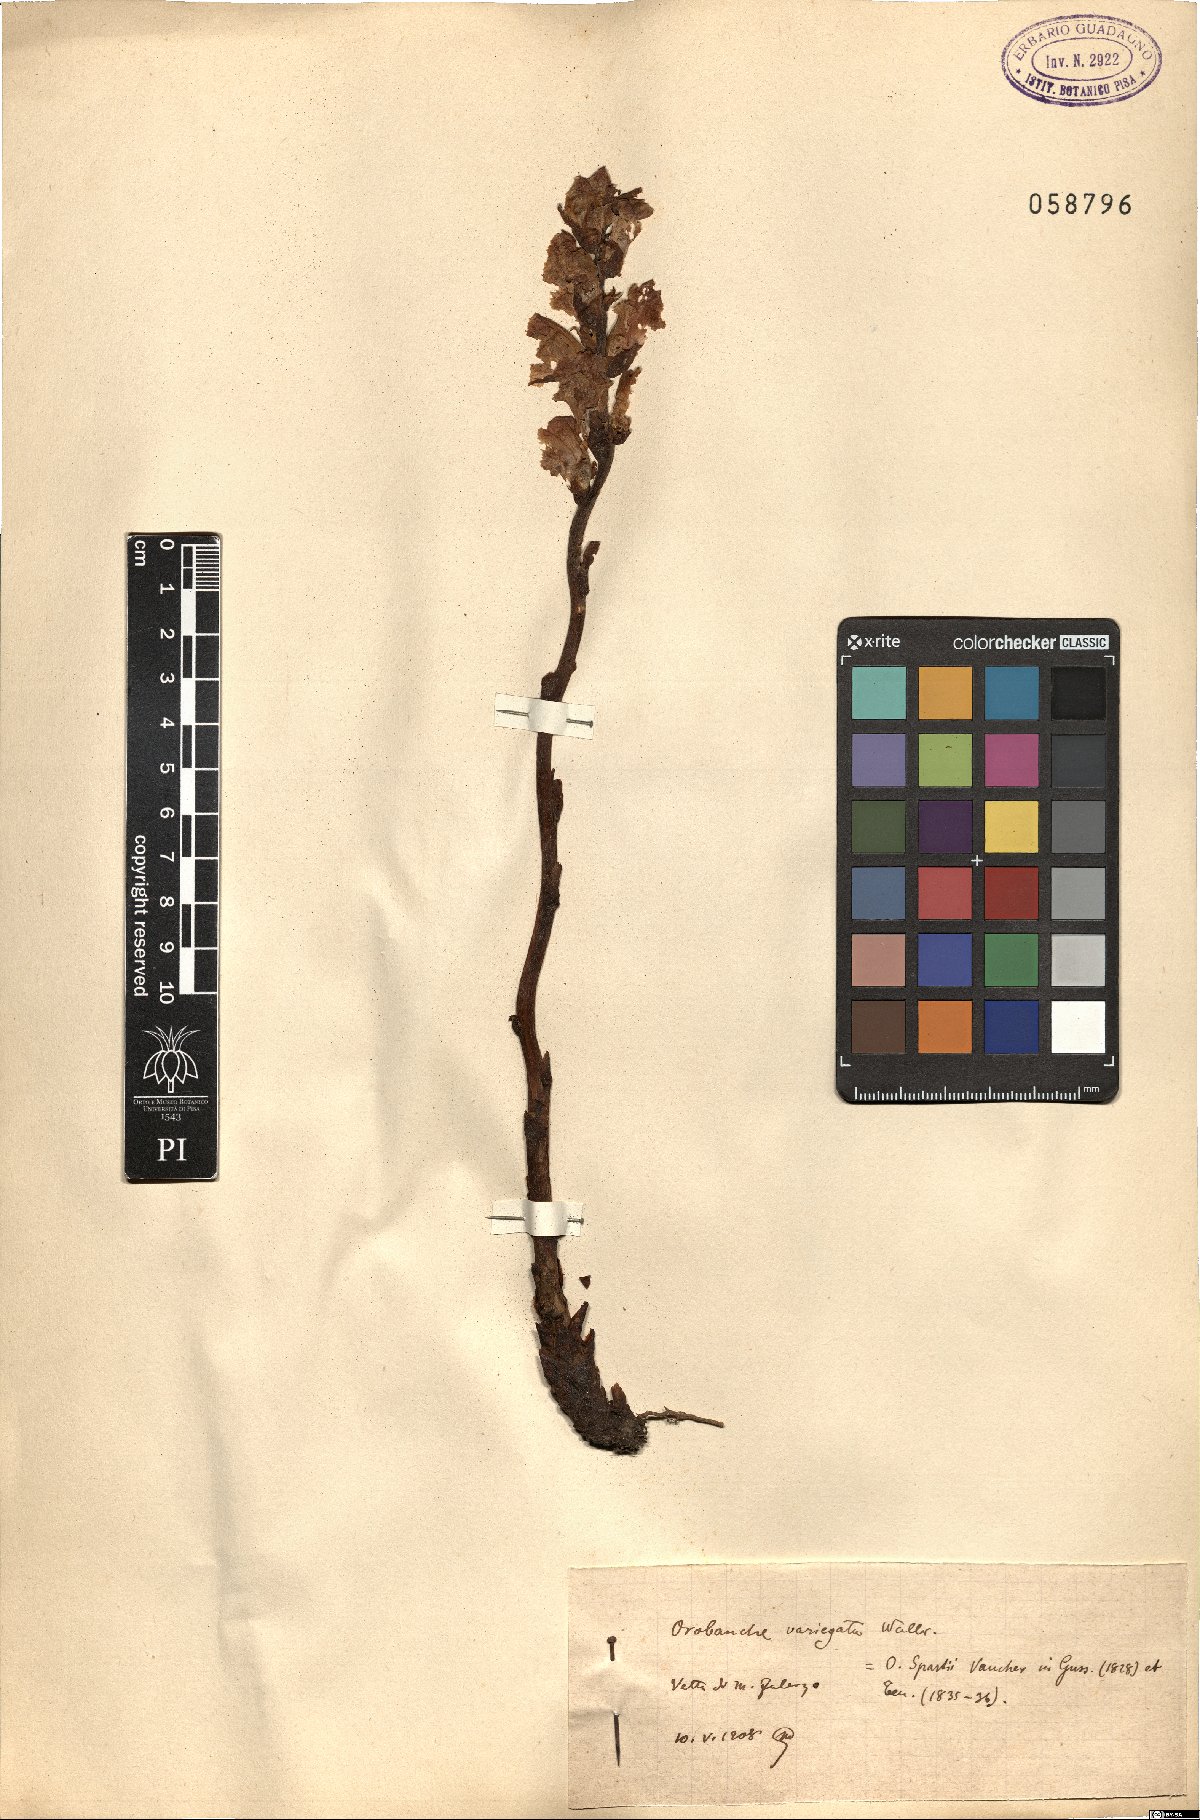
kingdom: Plantae
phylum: Tracheophyta
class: Magnoliopsida
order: Lamiales
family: Orobanchaceae
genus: Orobanche
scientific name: Orobanche variegata
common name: Variegated broomrape
